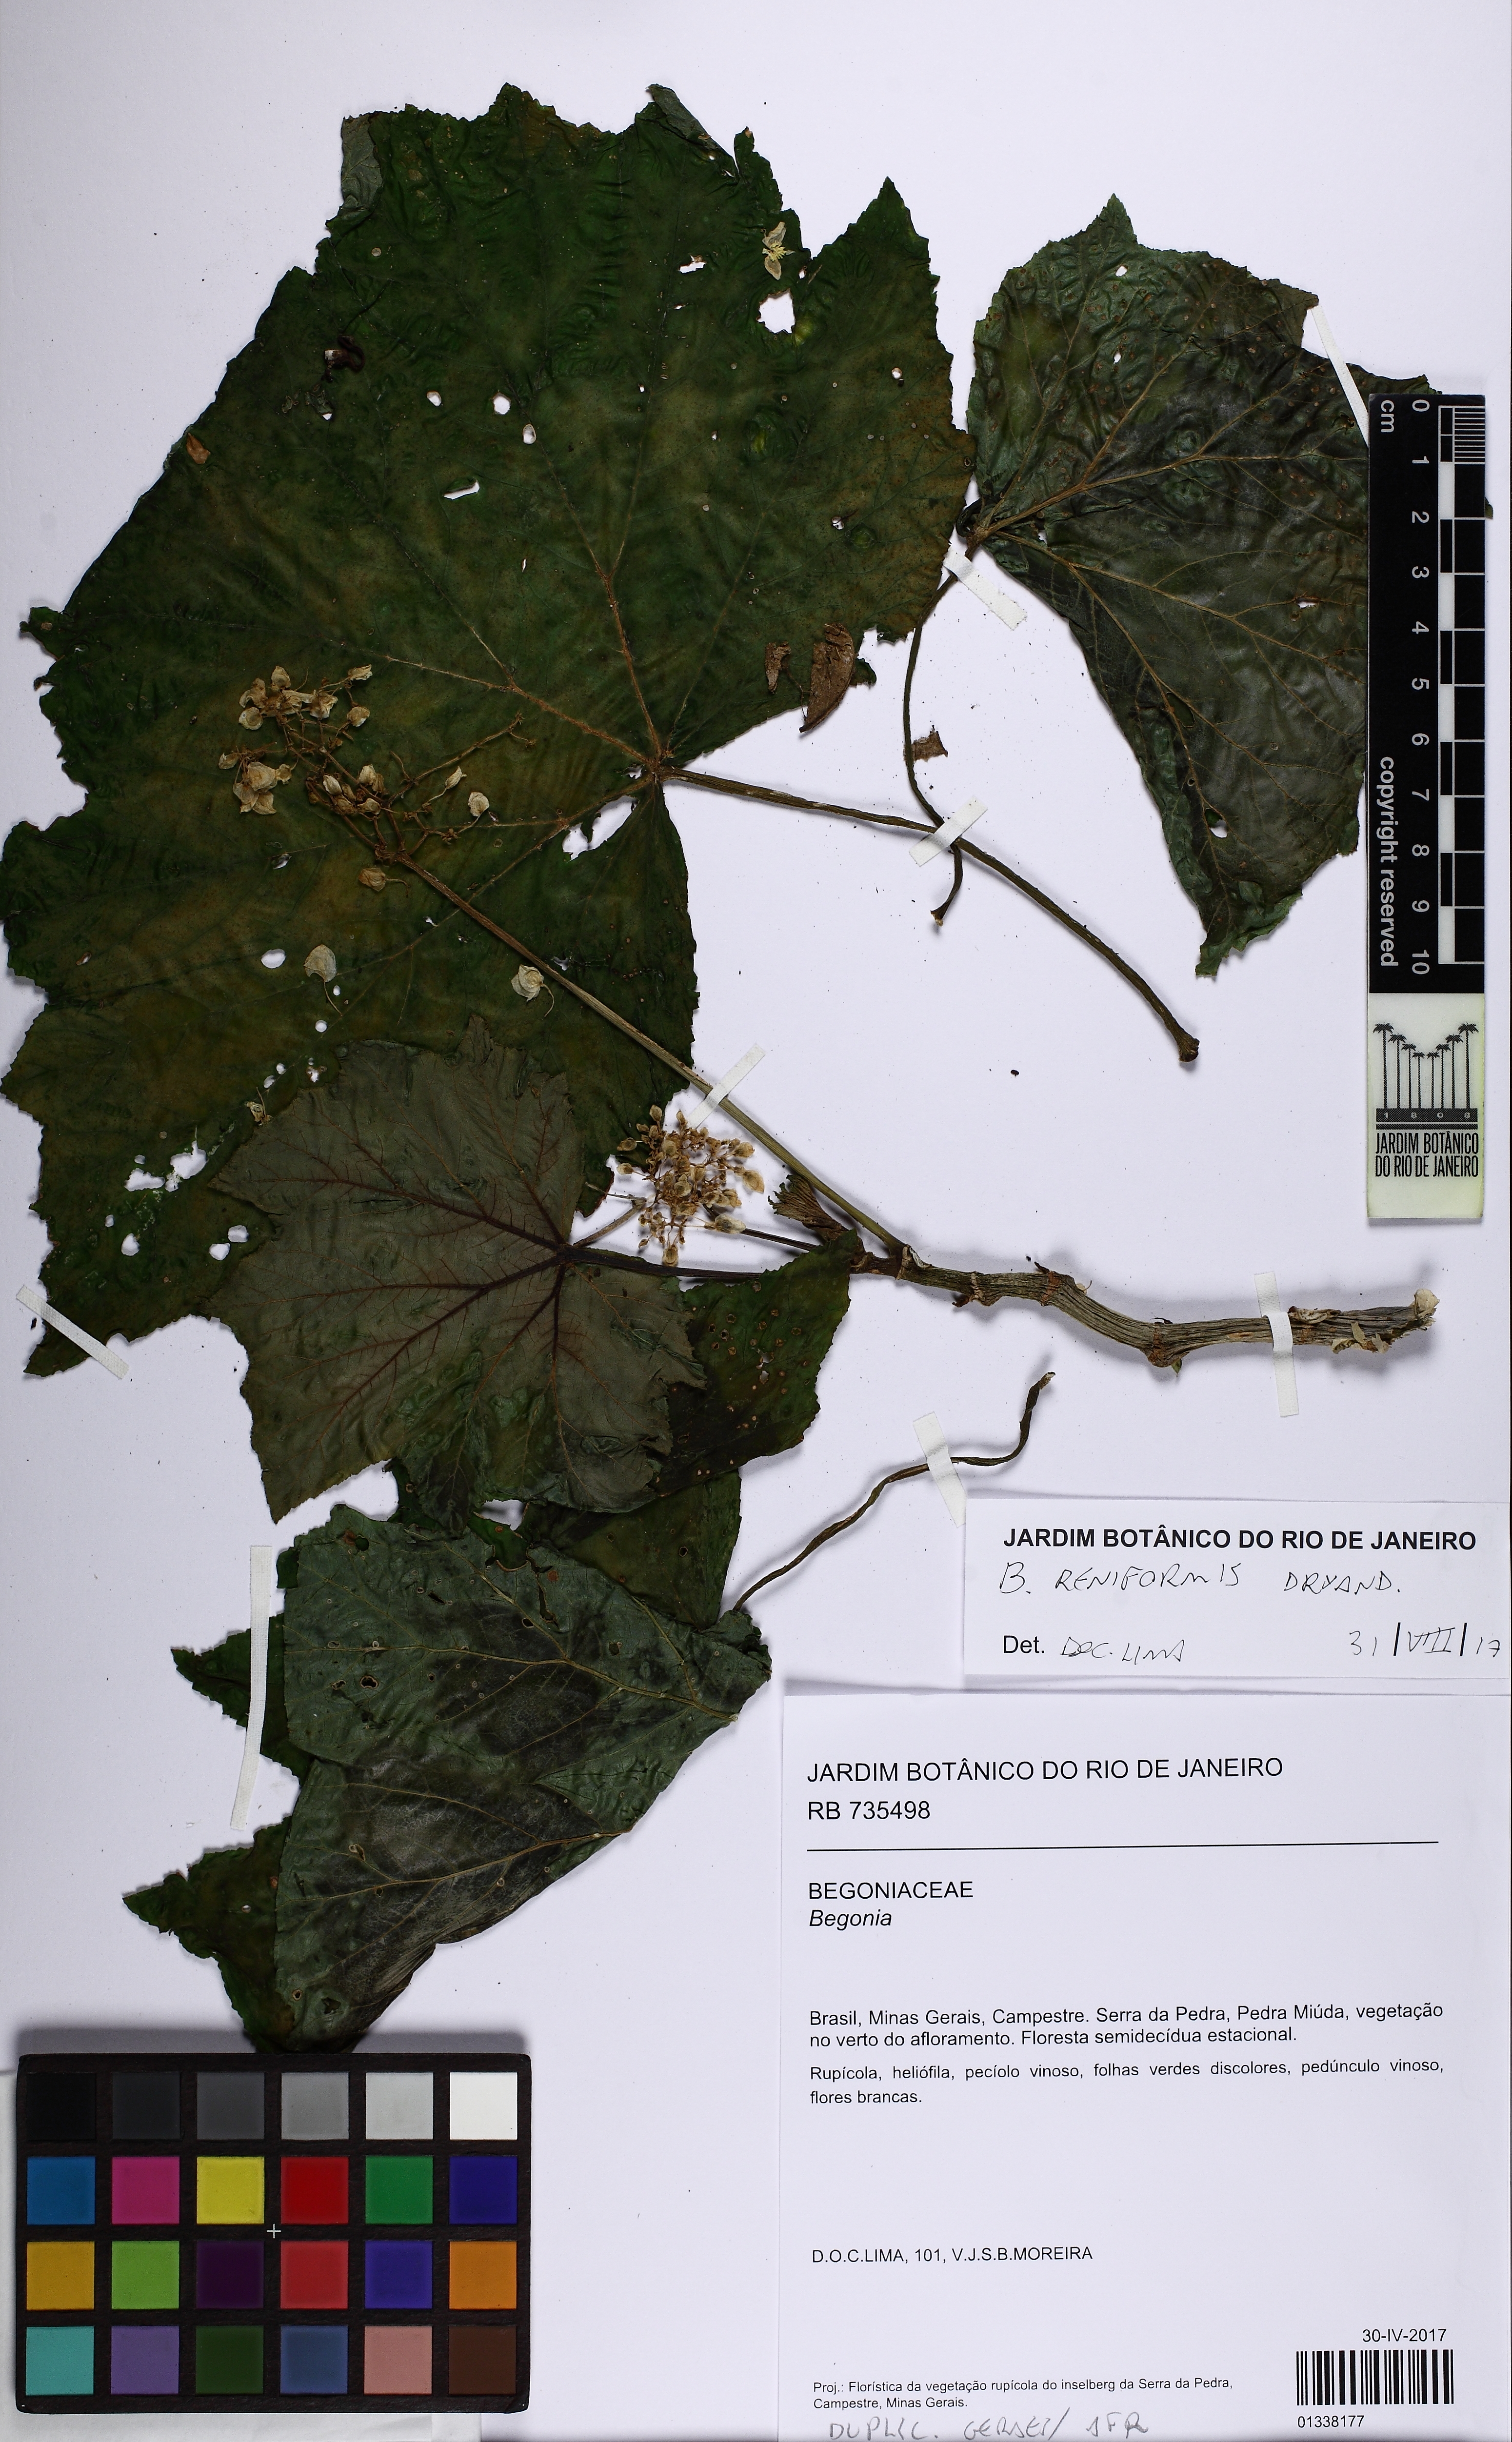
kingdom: Plantae
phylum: Tracheophyta
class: Magnoliopsida
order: Cucurbitales
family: Begoniaceae
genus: Begonia
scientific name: Begonia reniformis
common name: Grapeleaf begonia
